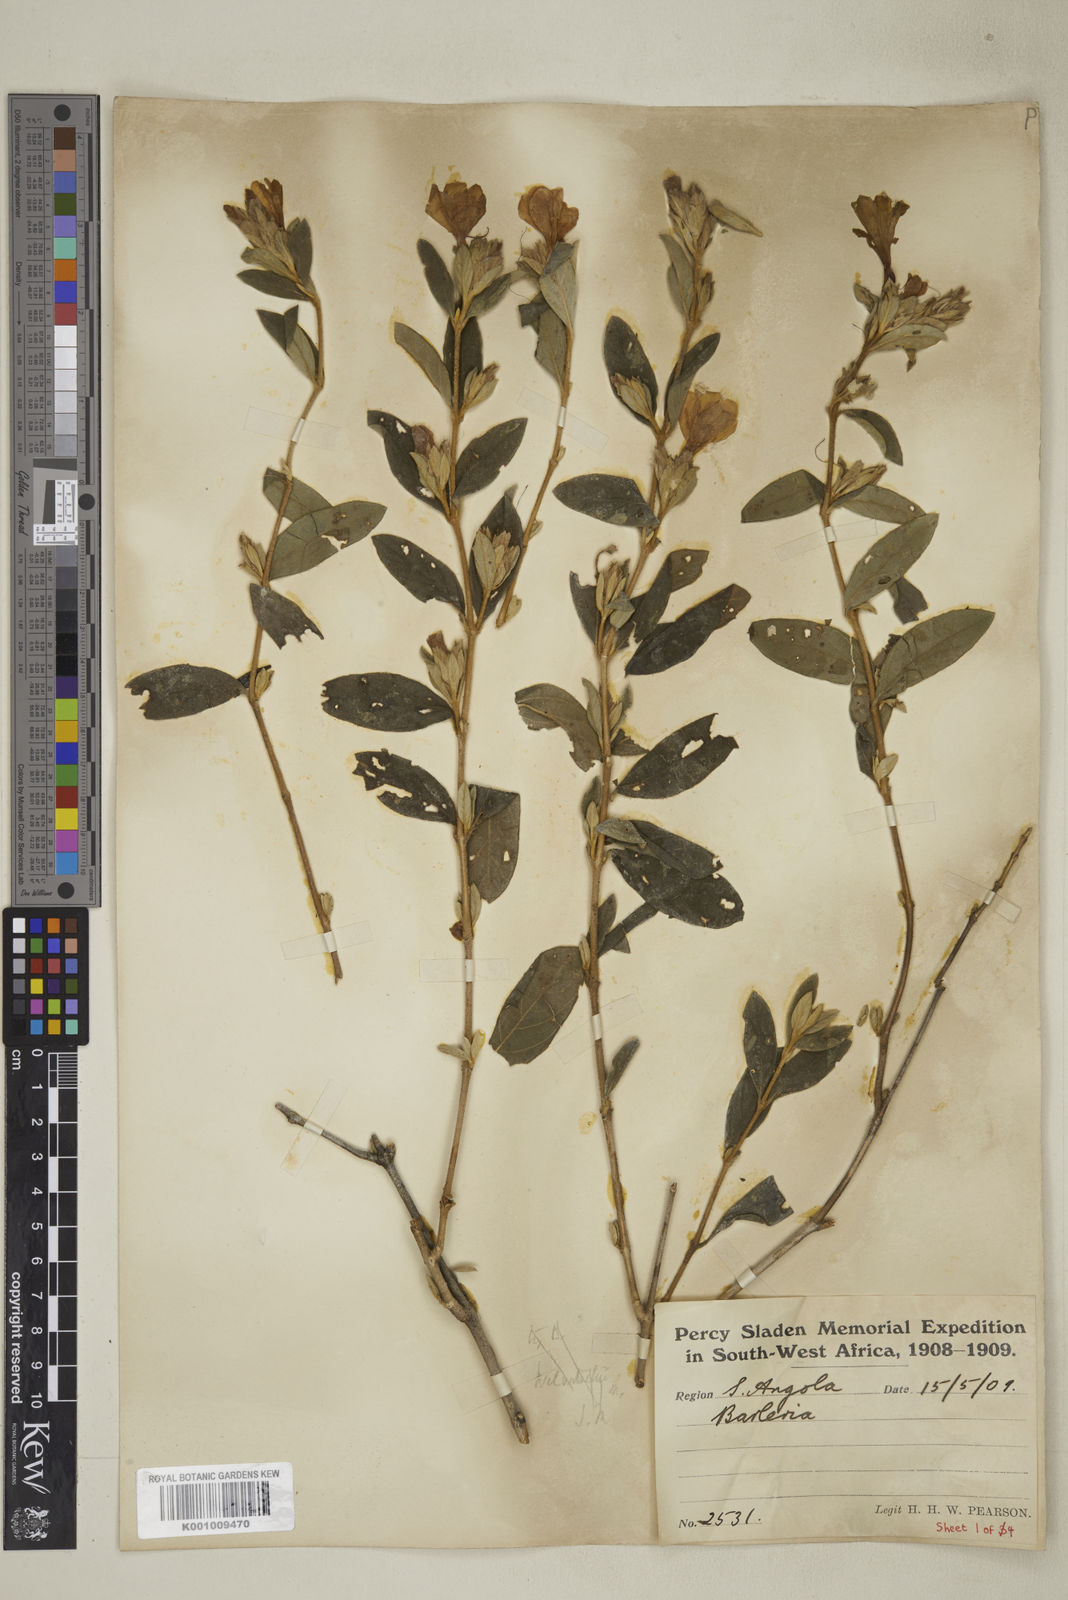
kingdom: Plantae
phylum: Tracheophyta
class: Magnoliopsida
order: Lamiales
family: Acanthaceae
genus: Barleria
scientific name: Barleria taitensis
